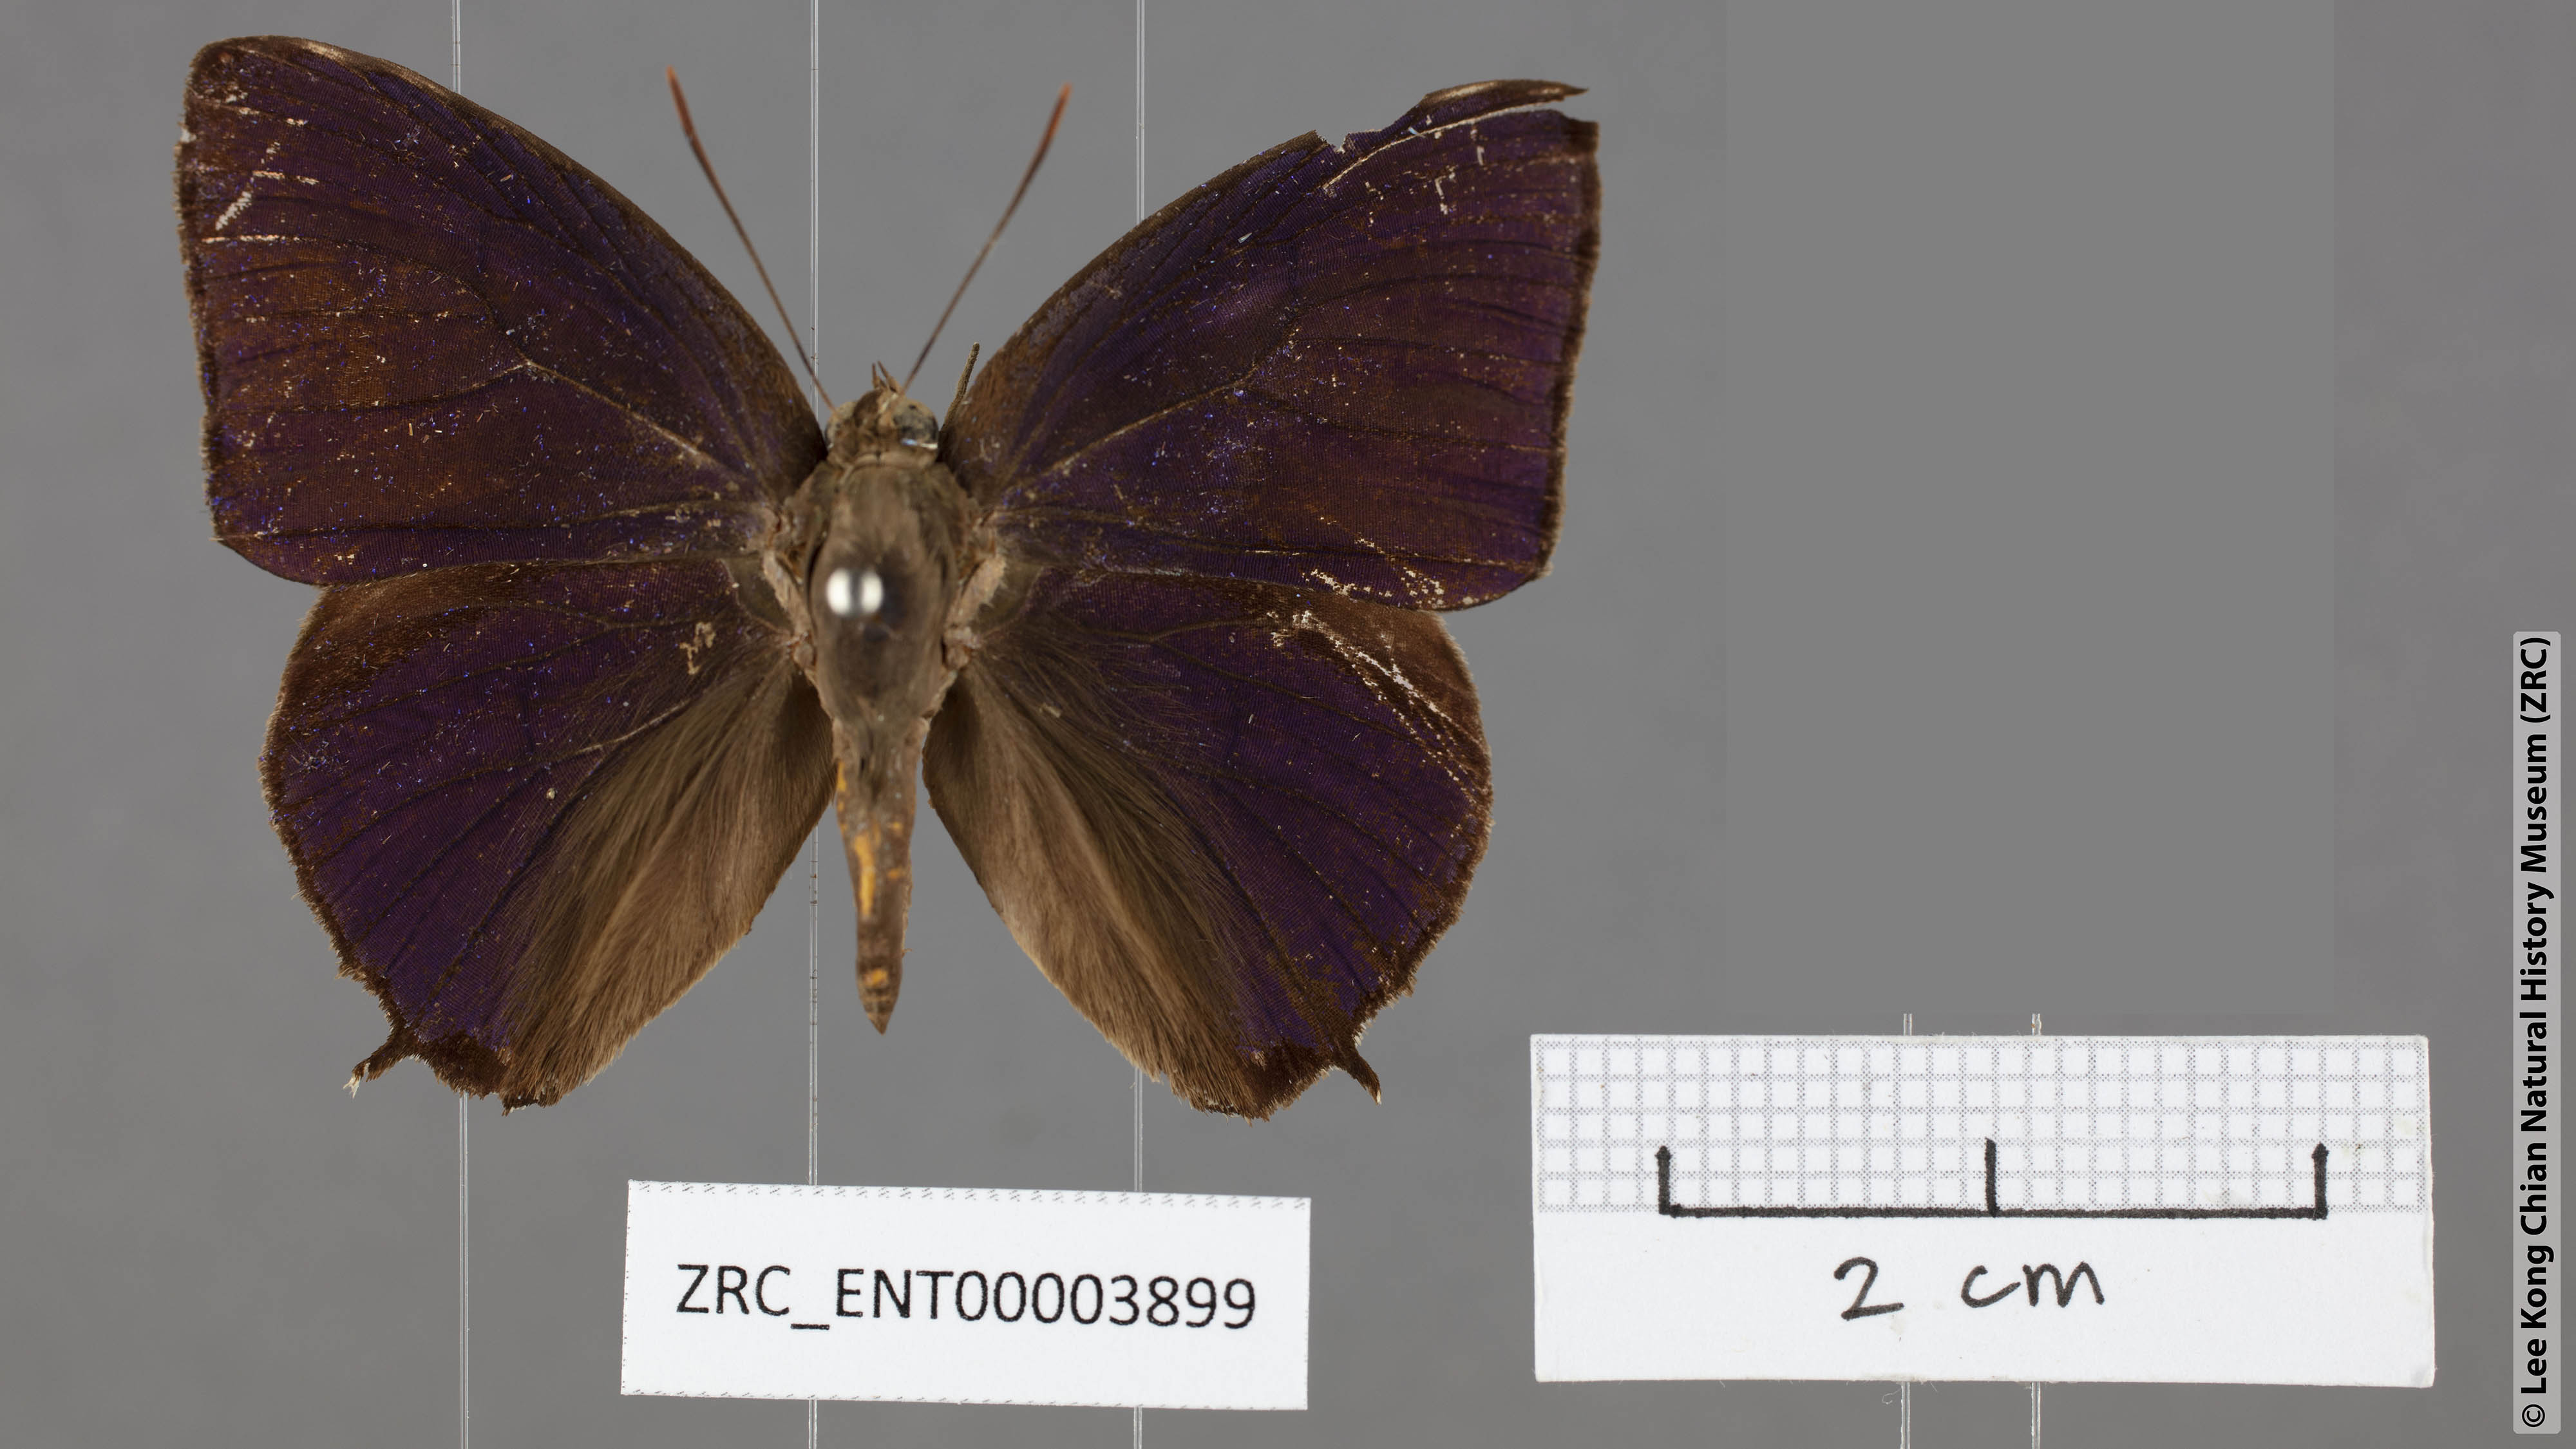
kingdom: Animalia
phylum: Arthropoda
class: Insecta
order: Lepidoptera
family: Lycaenidae
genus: Arhopala
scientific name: Arhopala corinda
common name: Ultramarine oakblue
